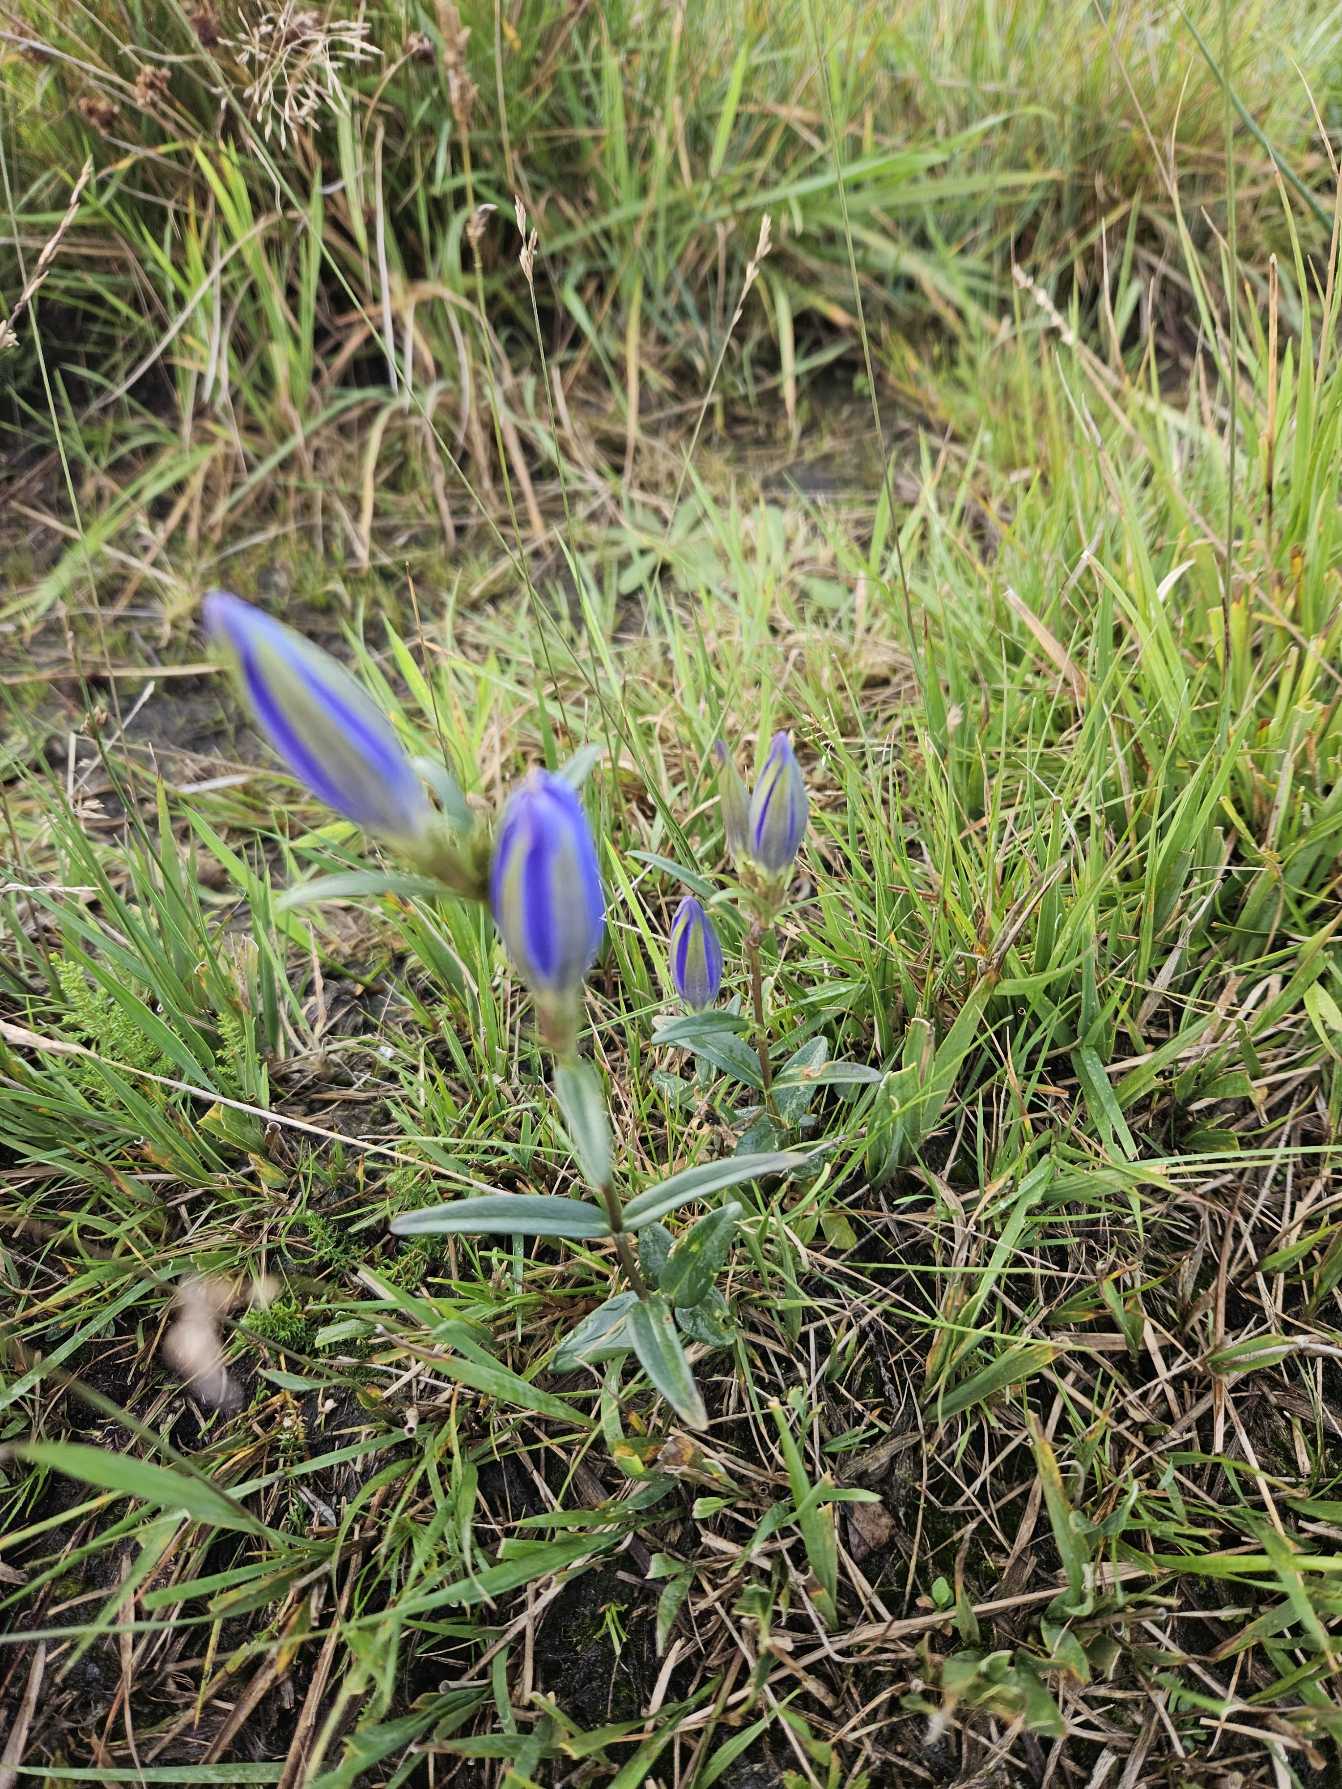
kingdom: Plantae
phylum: Tracheophyta
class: Magnoliopsida
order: Gentianales
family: Gentianaceae
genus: Gentiana
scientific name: Gentiana pneumonanthe
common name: Klokke-ensian
